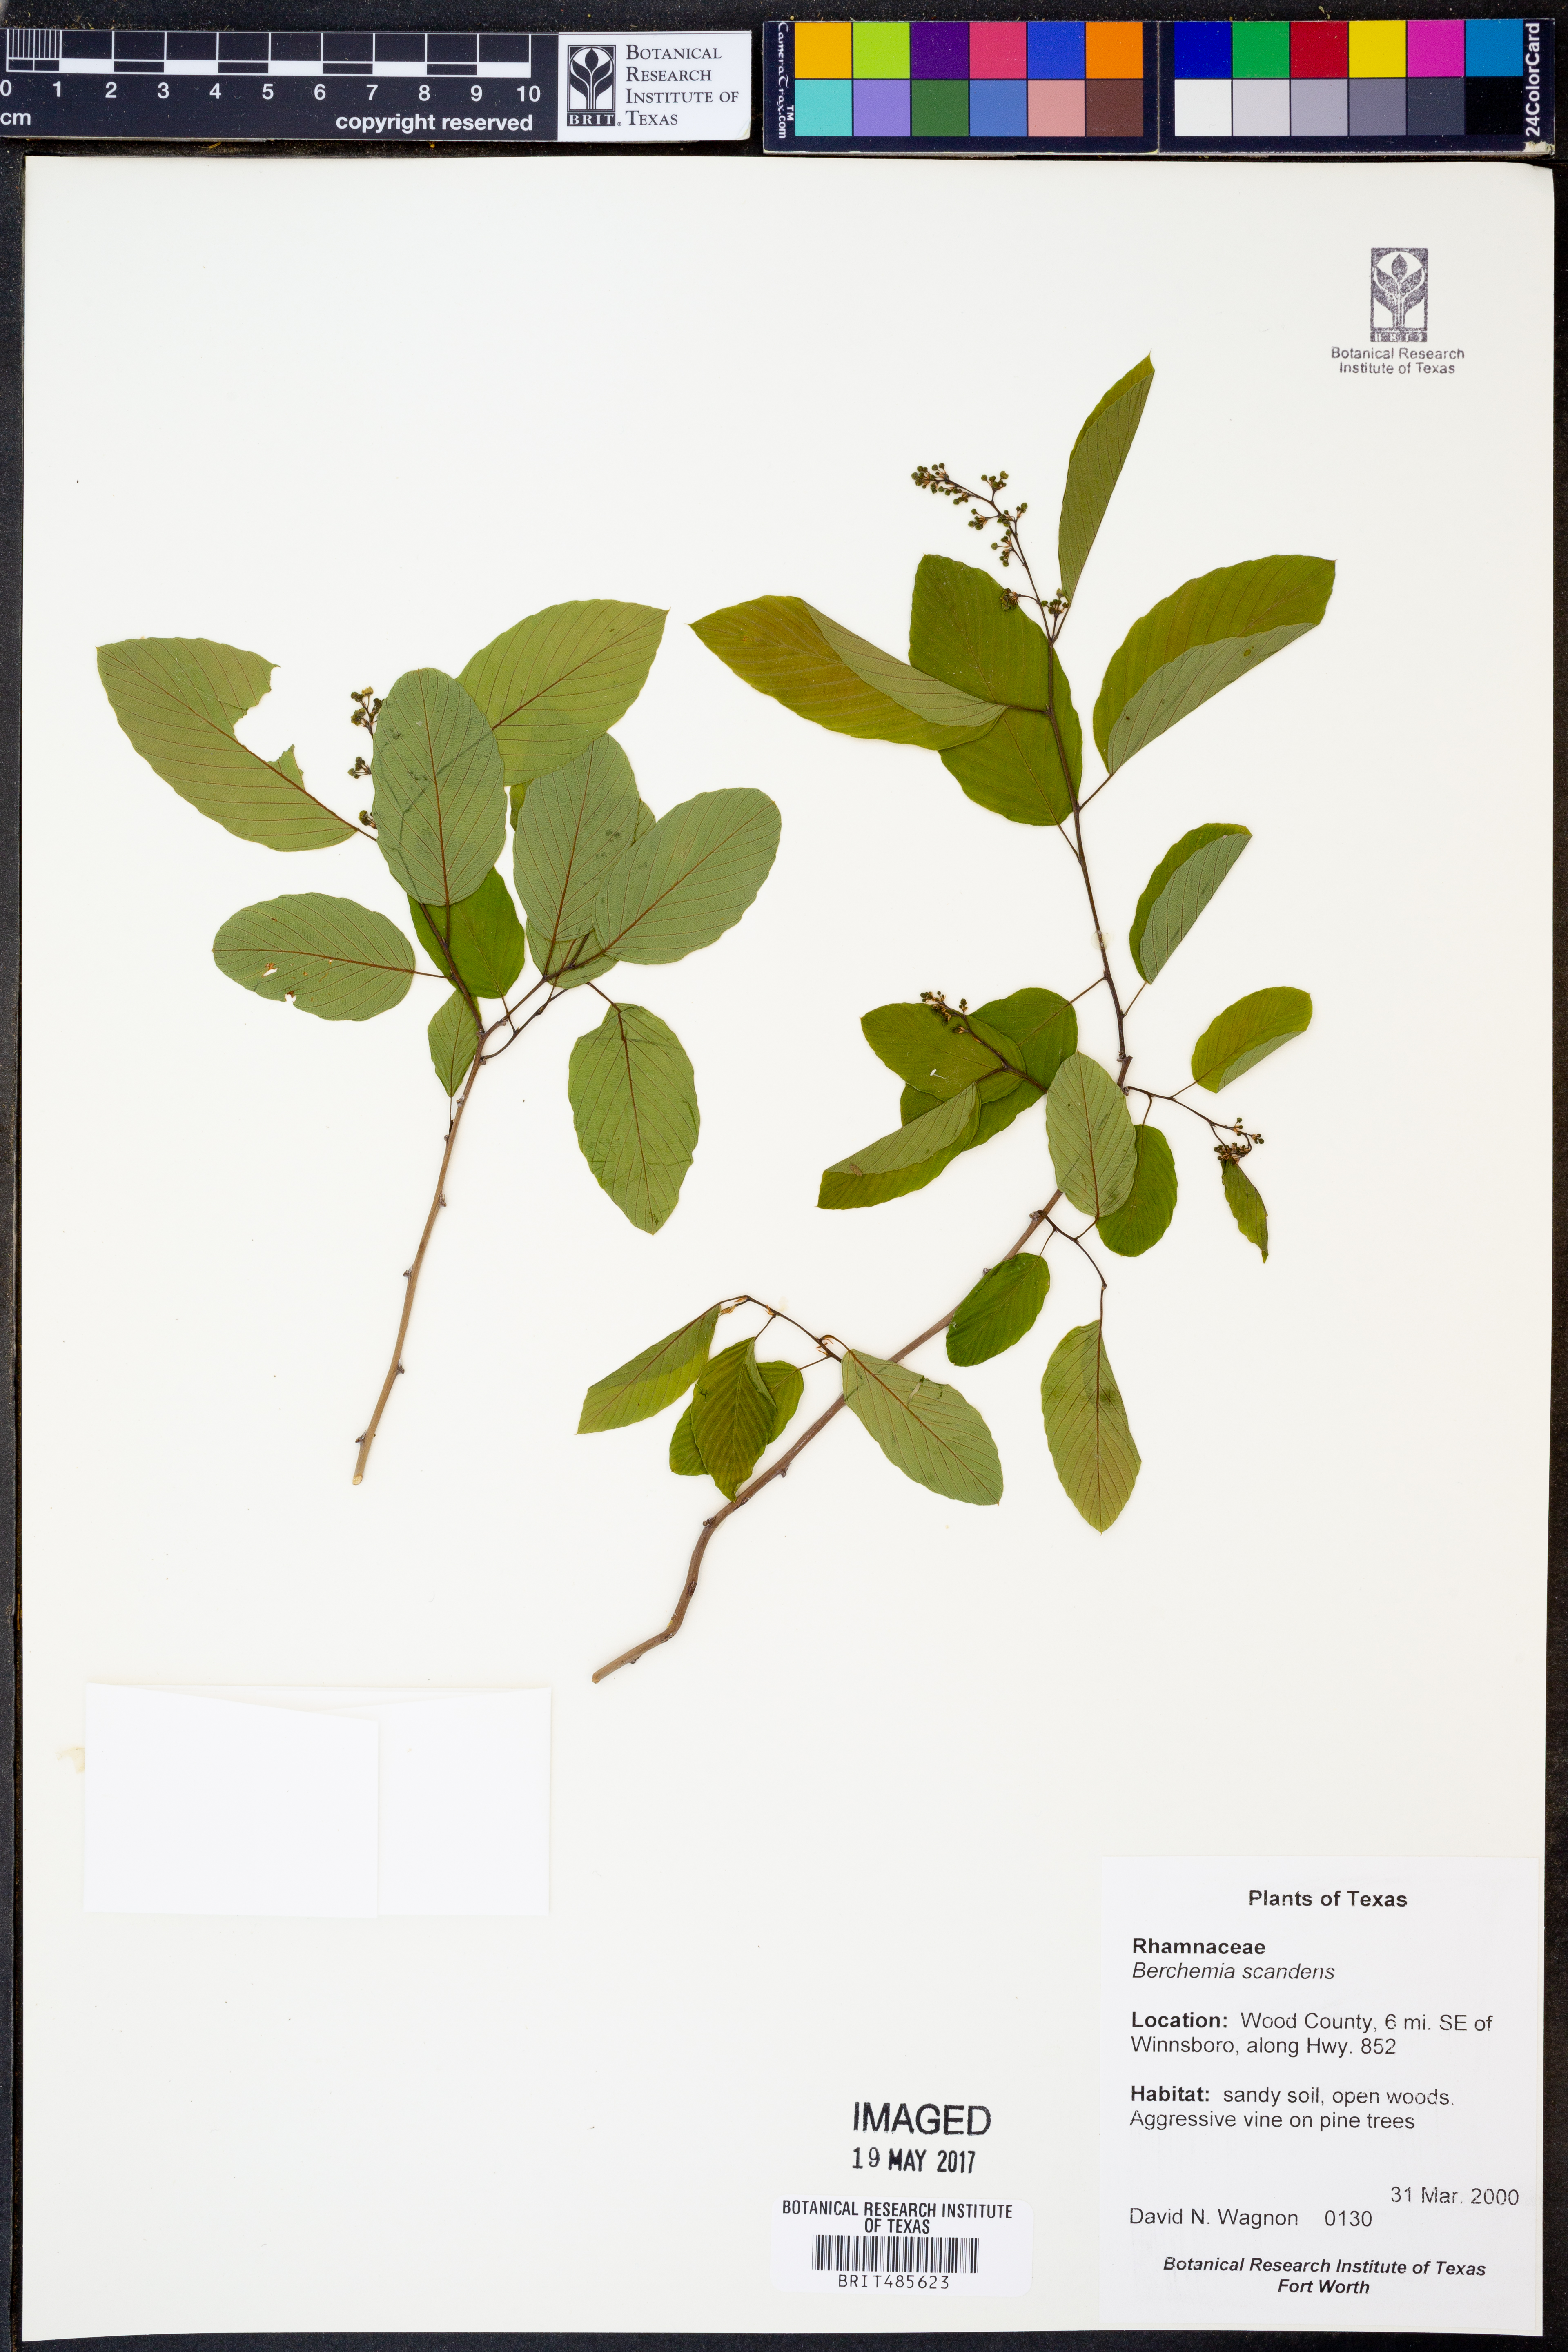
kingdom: Plantae
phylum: Tracheophyta
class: Magnoliopsida
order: Rosales
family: Rhamnaceae
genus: Berchemia
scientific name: Berchemia scandens
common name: Supplejack
